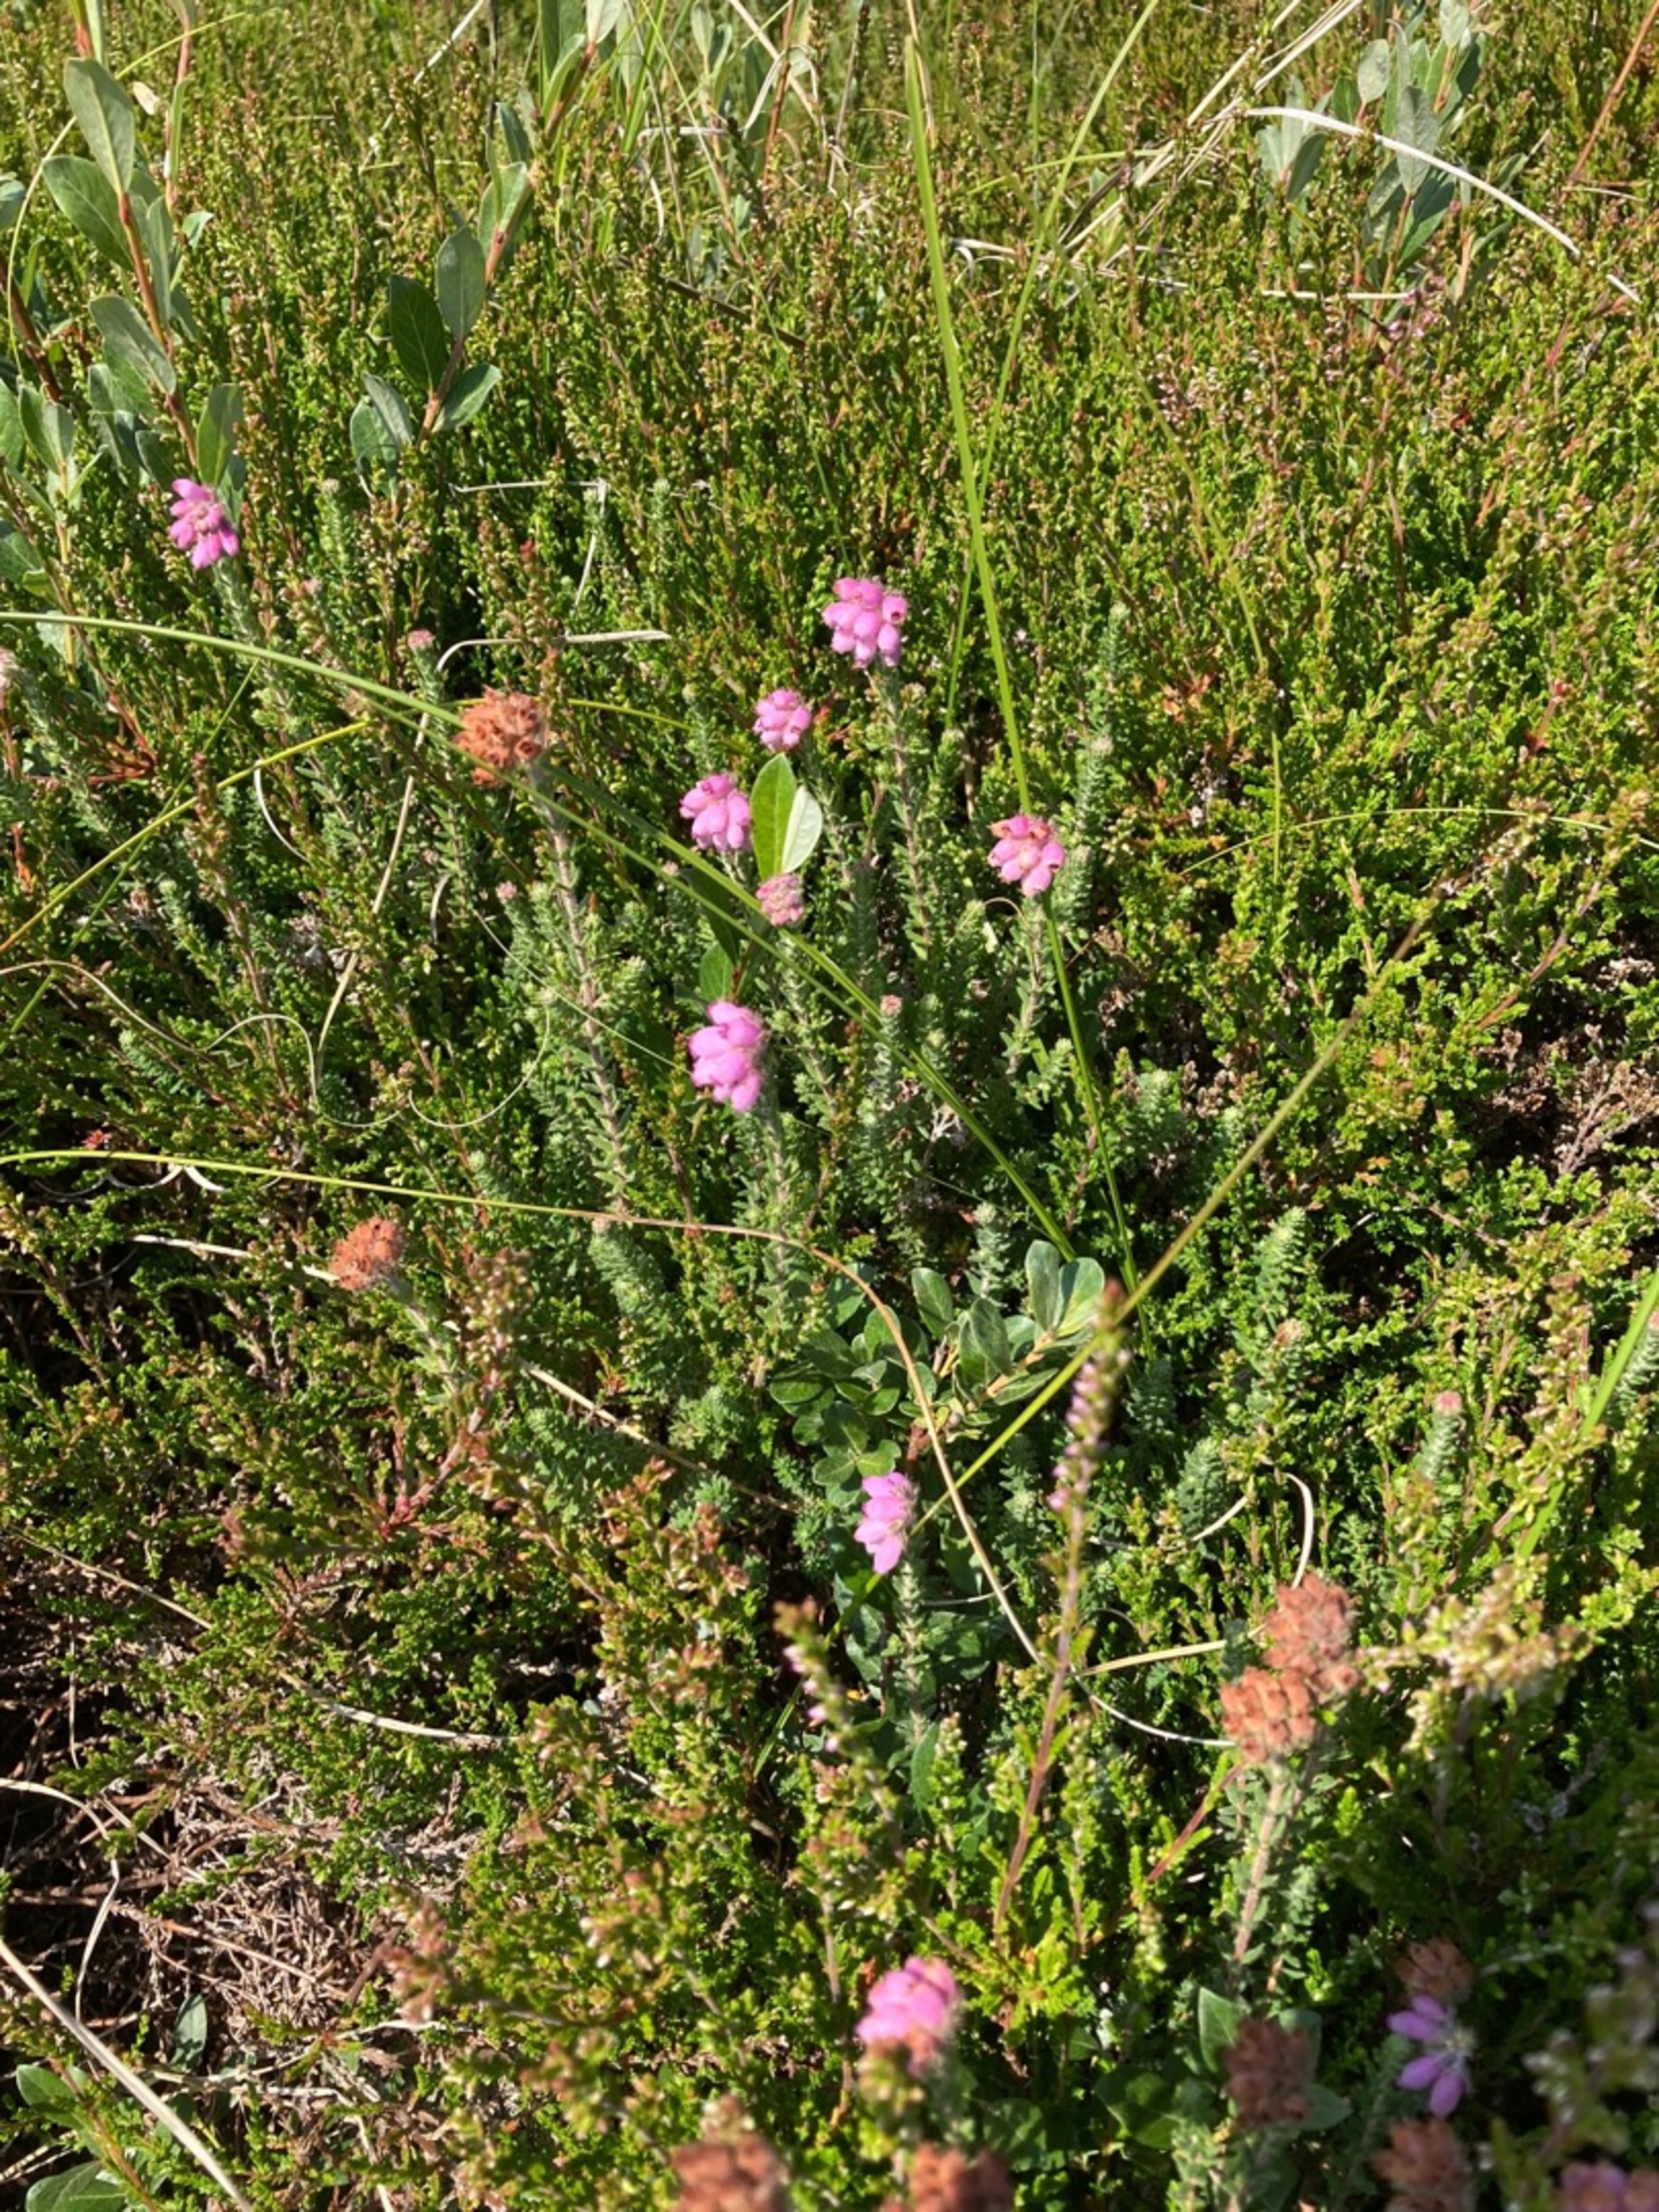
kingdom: Plantae
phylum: Tracheophyta
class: Magnoliopsida
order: Ericales
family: Ericaceae
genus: Erica
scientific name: Erica tetralix
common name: Klokkelyng
